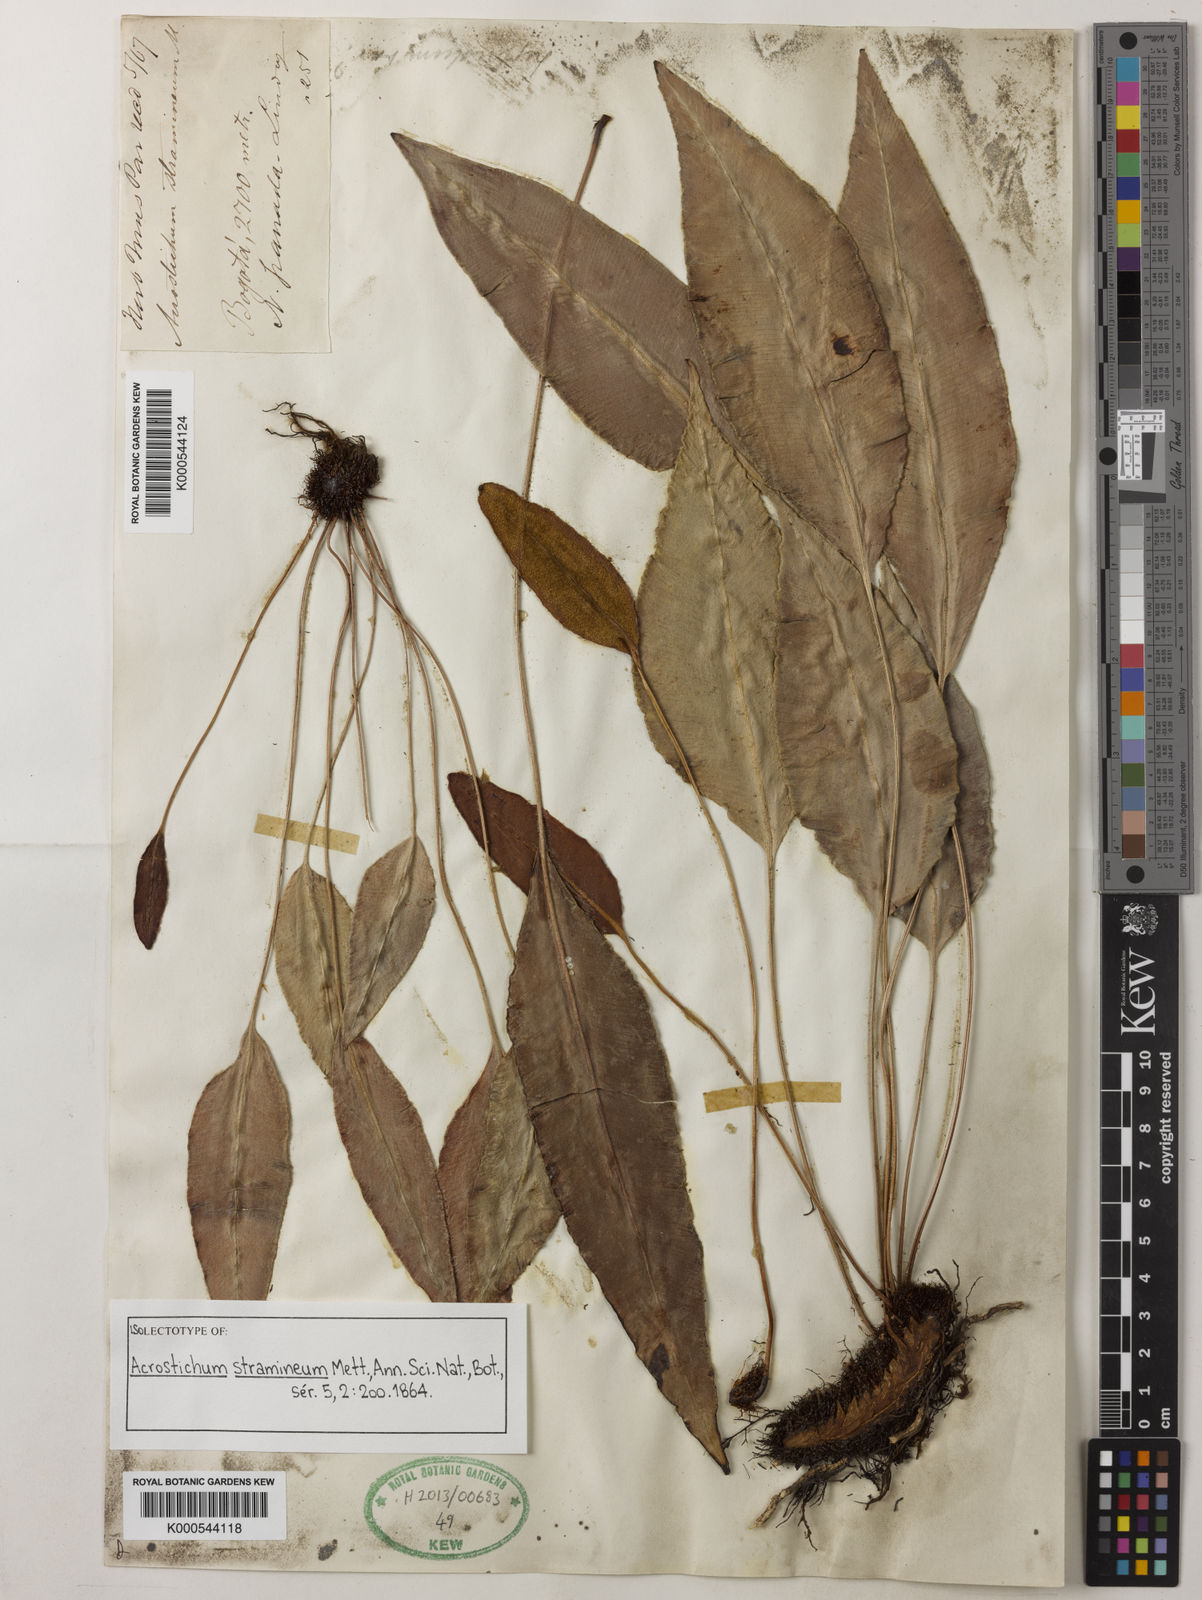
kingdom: Plantae
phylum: Tracheophyta
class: Polypodiopsida
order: Polypodiales
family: Dryopteridaceae
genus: Elaphoglossum
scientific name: Elaphoglossum tambillense
